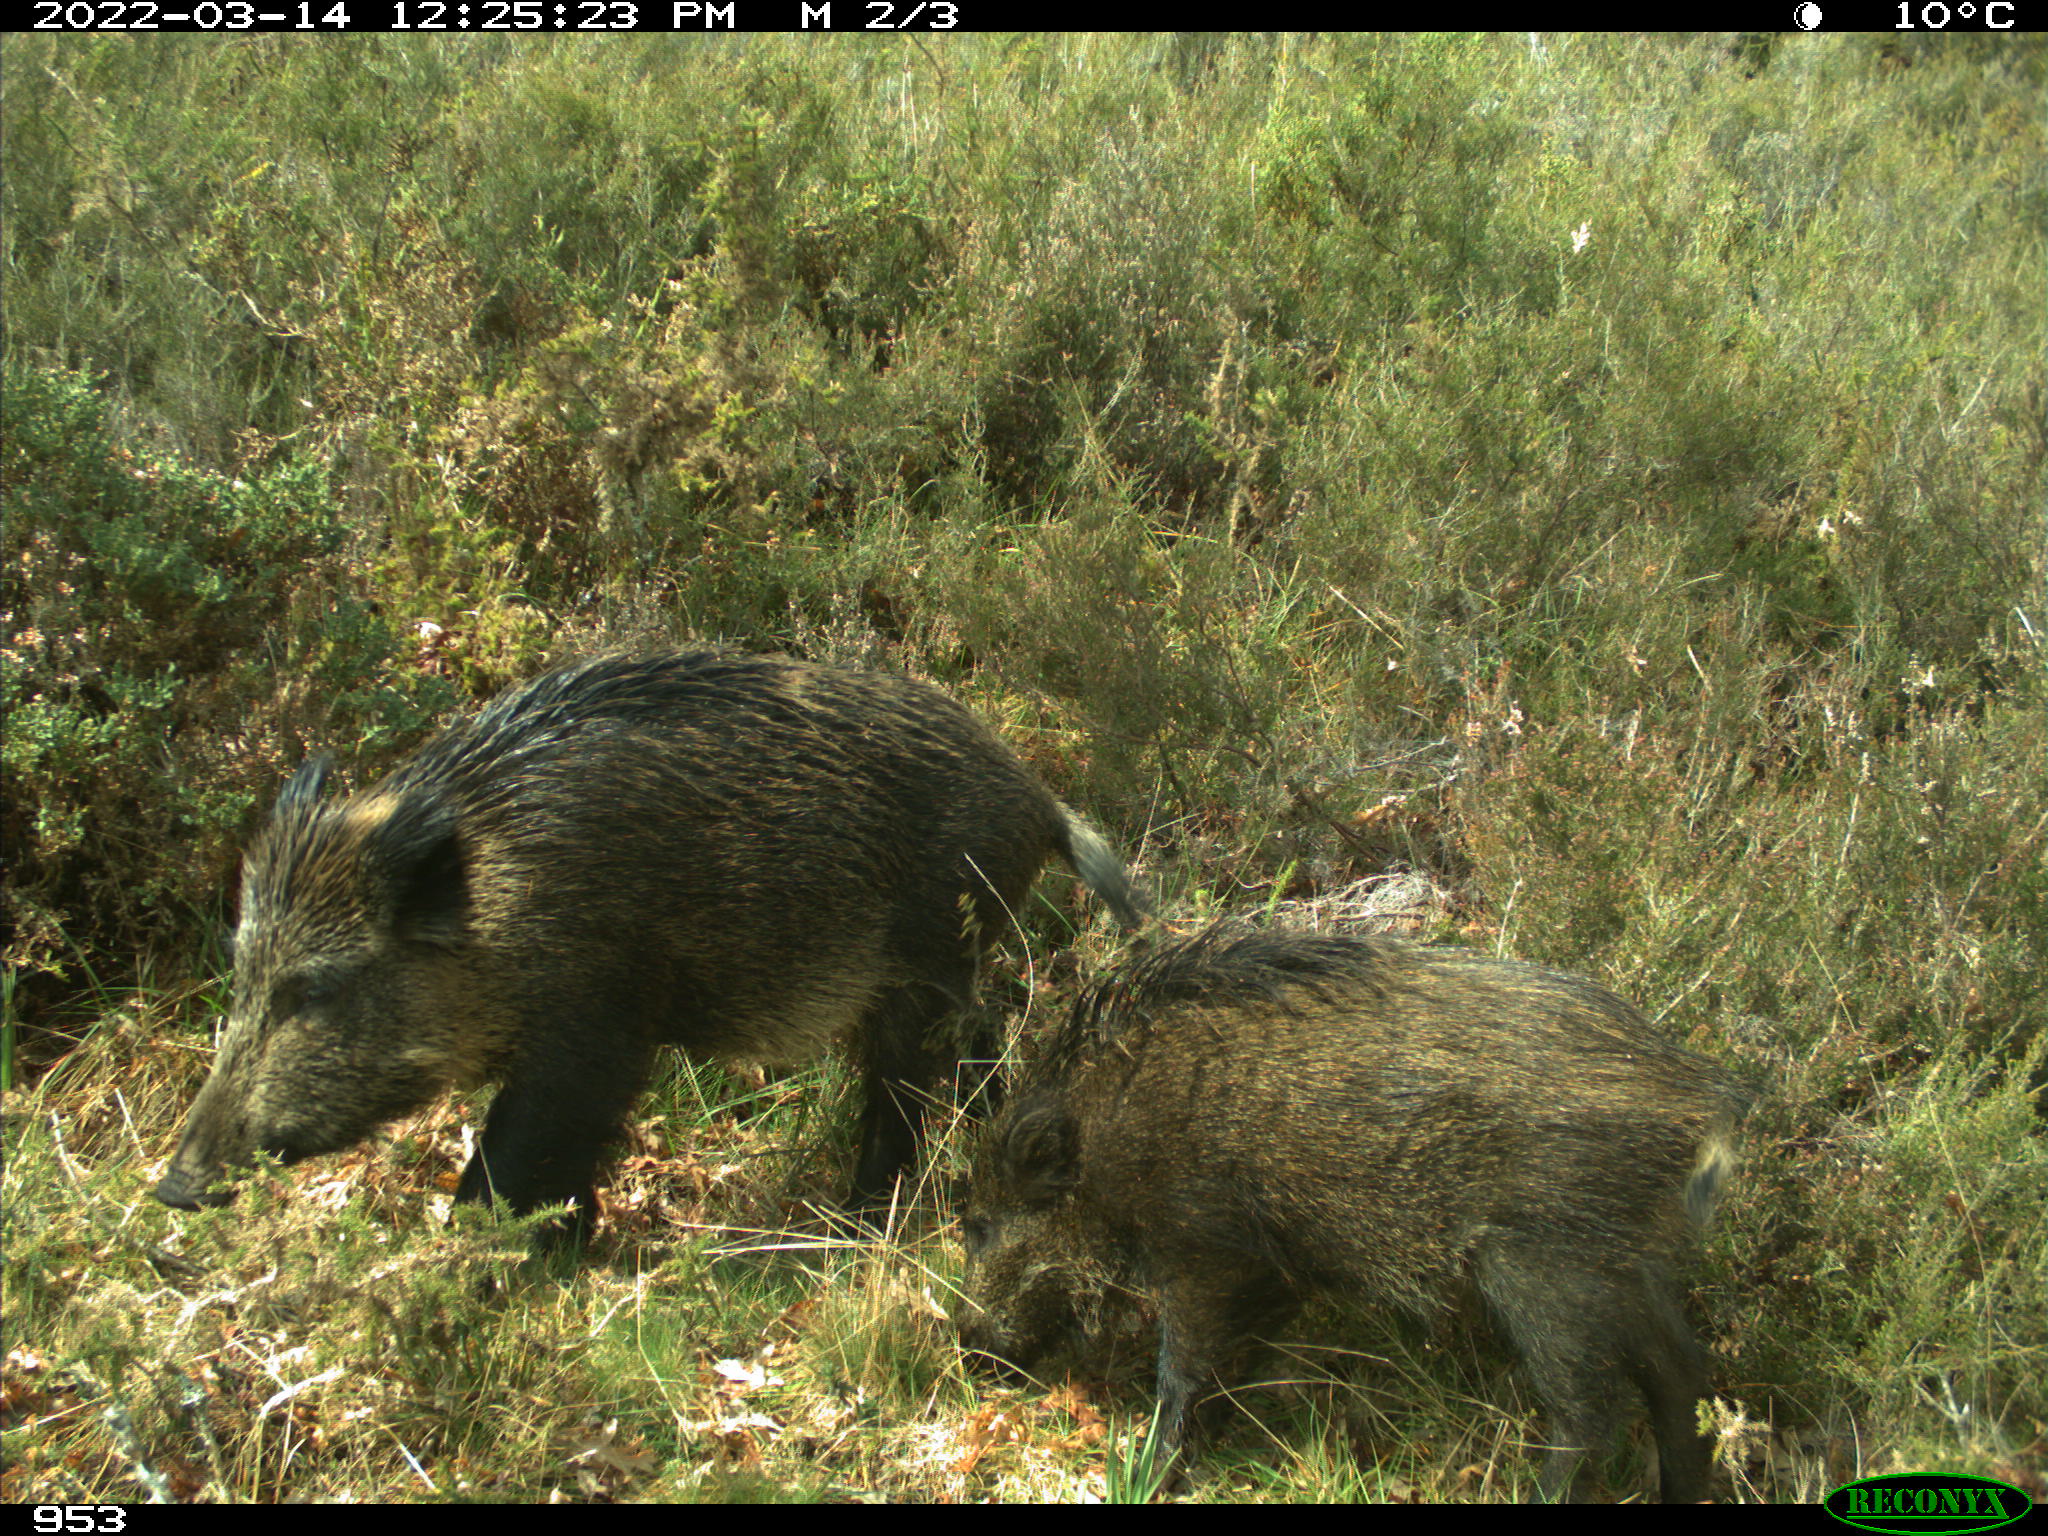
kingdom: Animalia
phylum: Chordata
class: Mammalia
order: Artiodactyla
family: Suidae
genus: Sus
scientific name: Sus scrofa
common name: Wild boar
